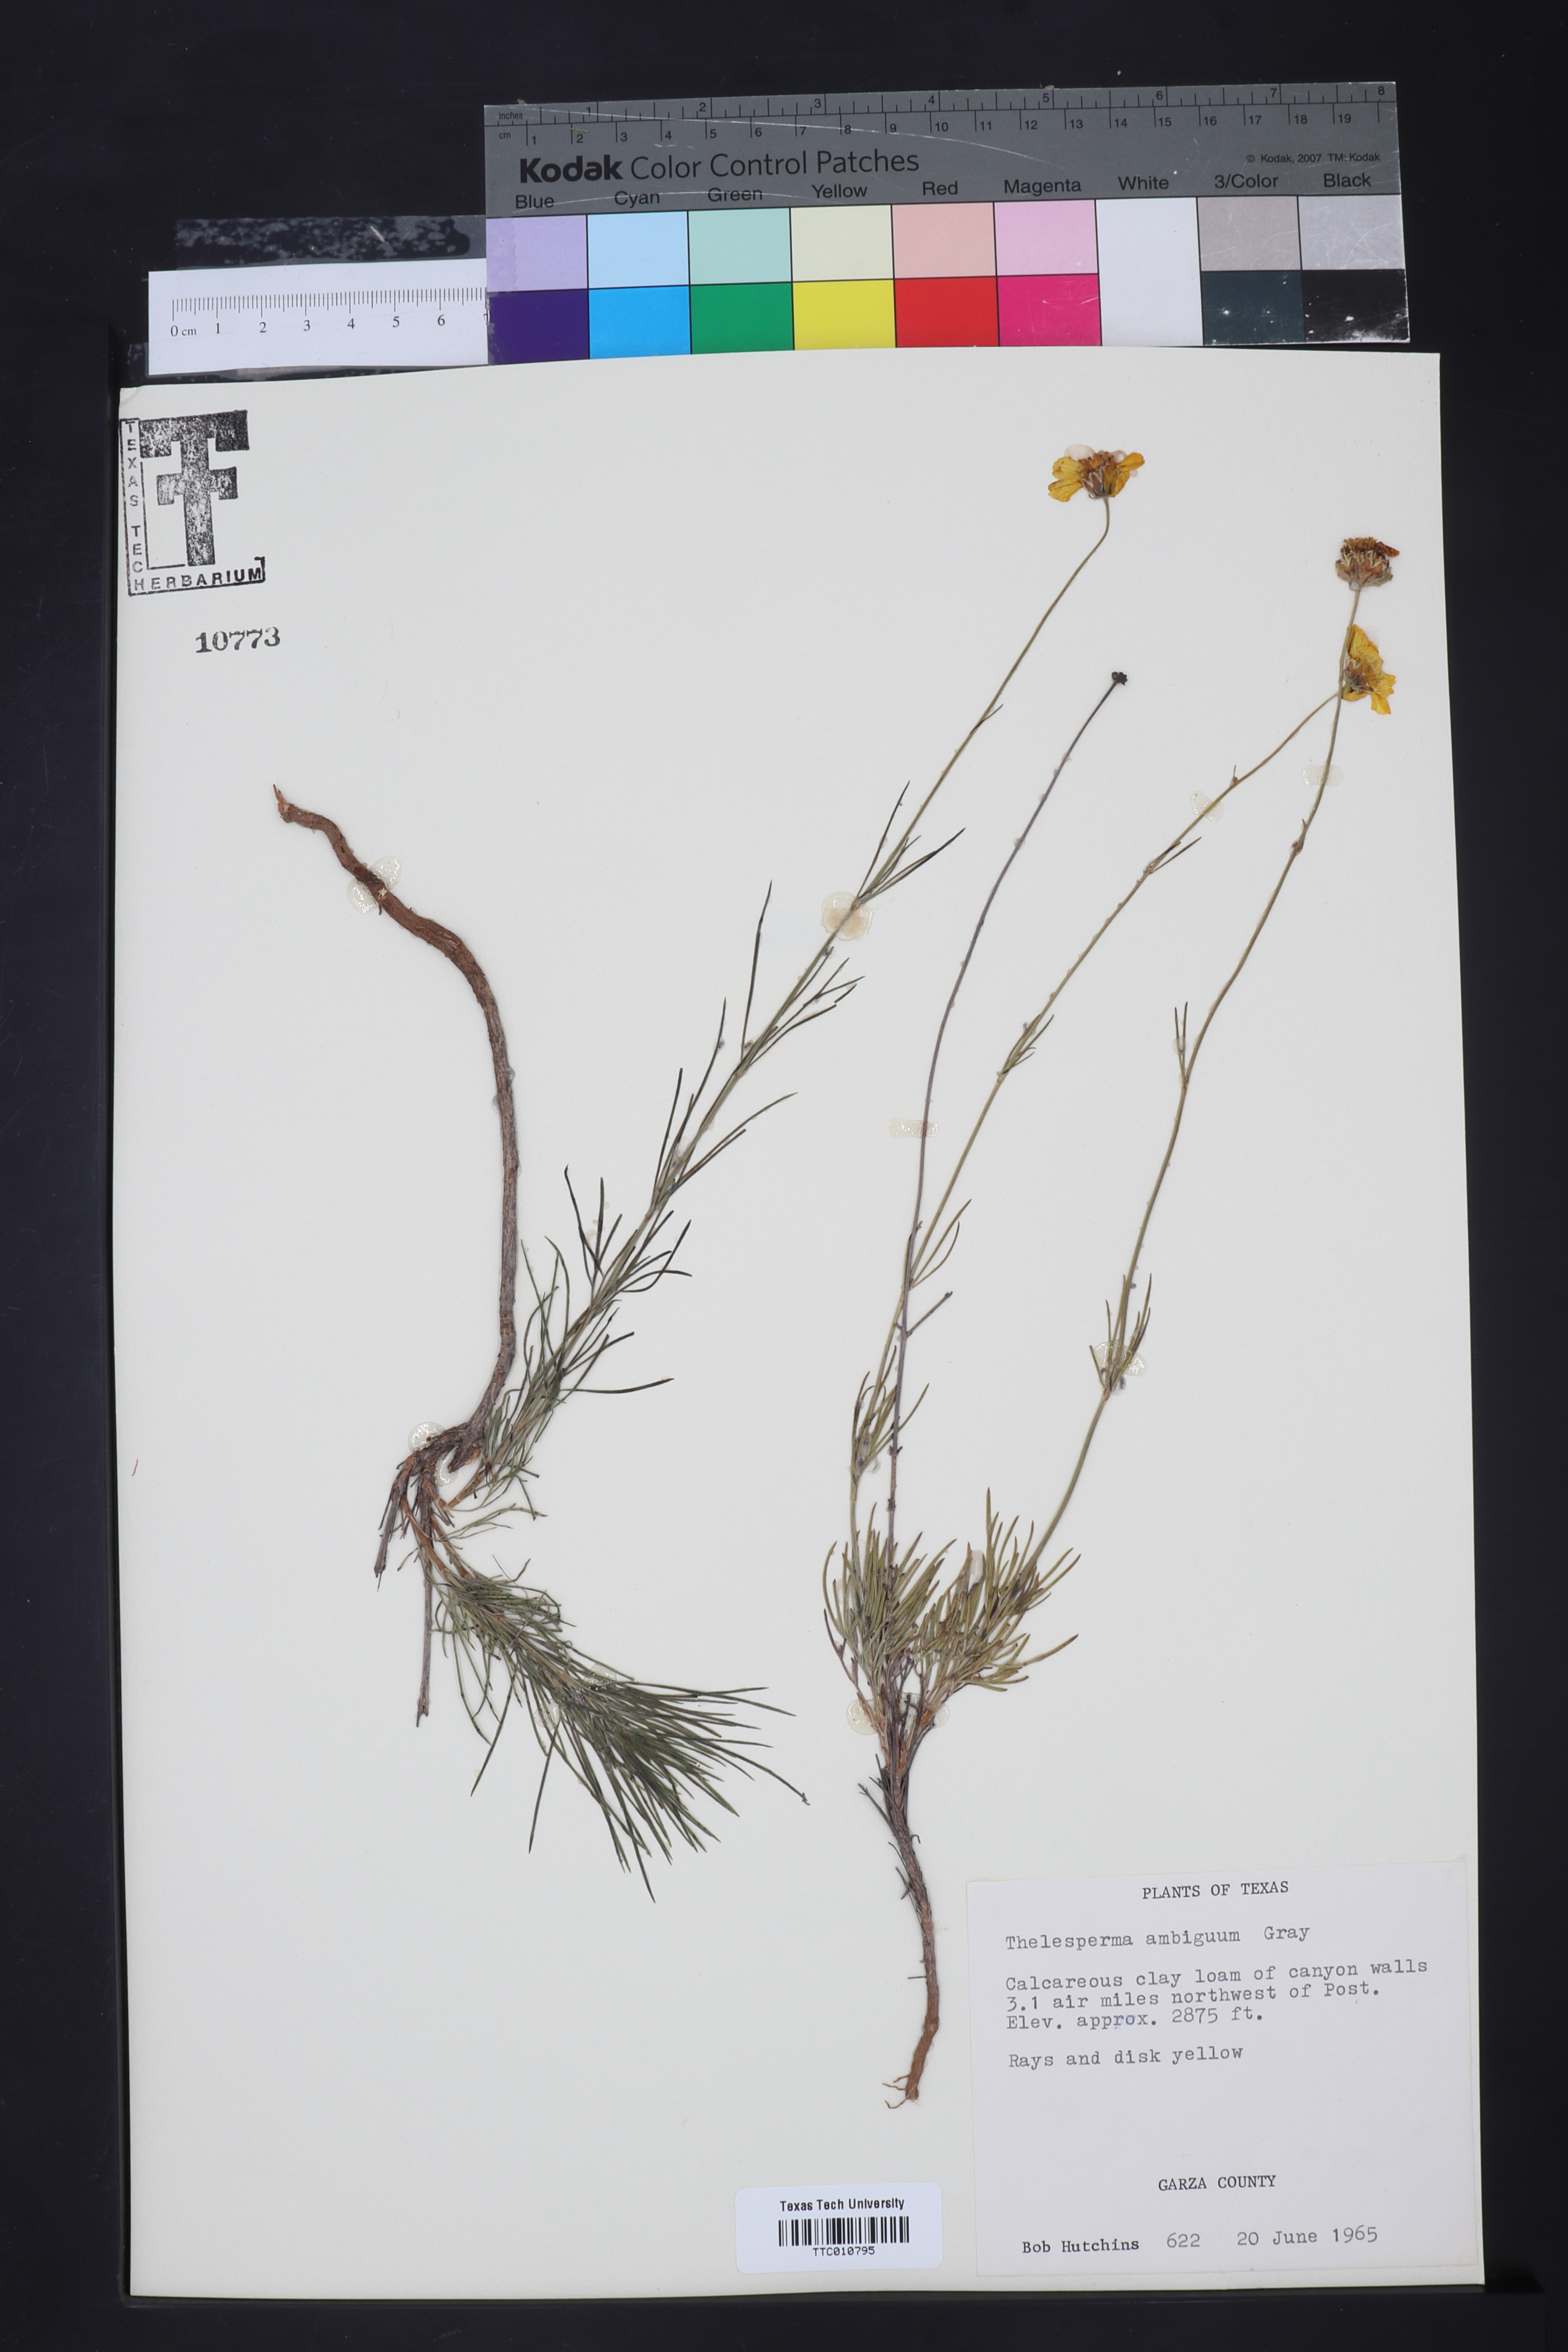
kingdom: Plantae
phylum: Tracheophyta
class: Magnoliopsida
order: Asterales
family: Asteraceae
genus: Thelesperma
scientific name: Thelesperma ambiguum
